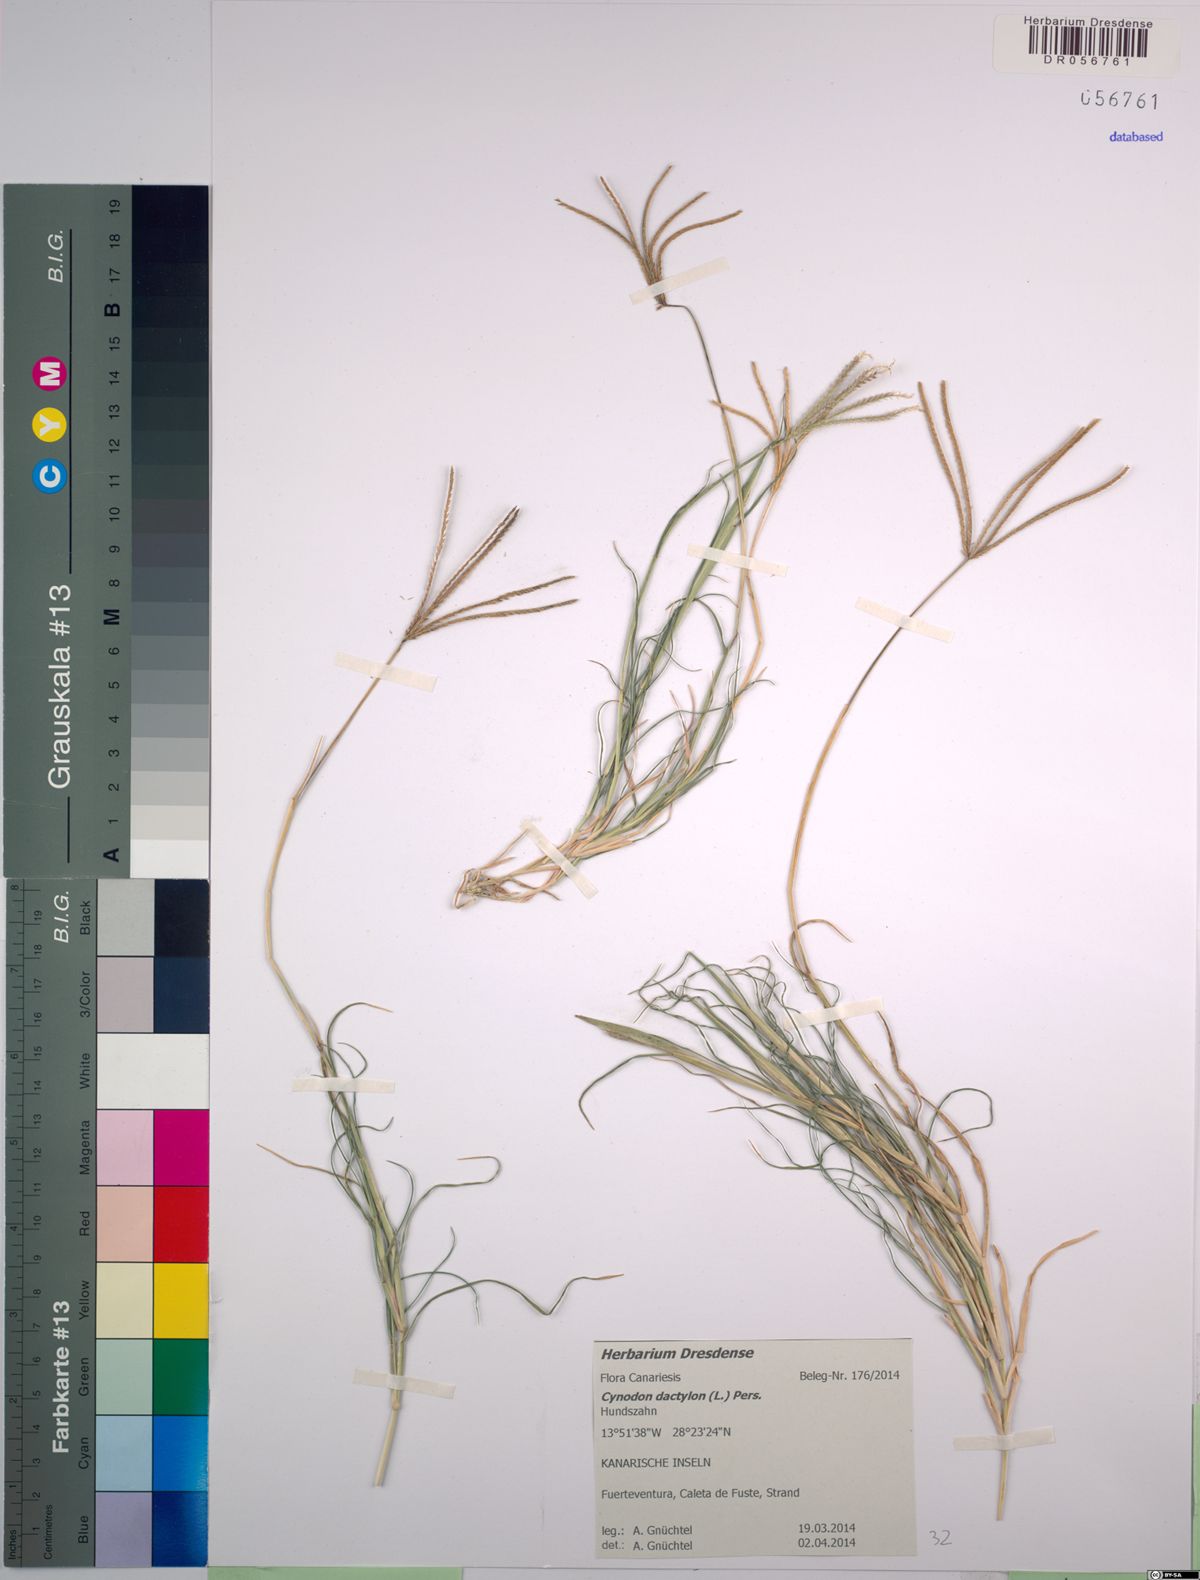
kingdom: Plantae
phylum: Tracheophyta
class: Liliopsida
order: Poales
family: Poaceae
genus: Cynodon
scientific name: Cynodon dactylon
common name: Bermuda grass
